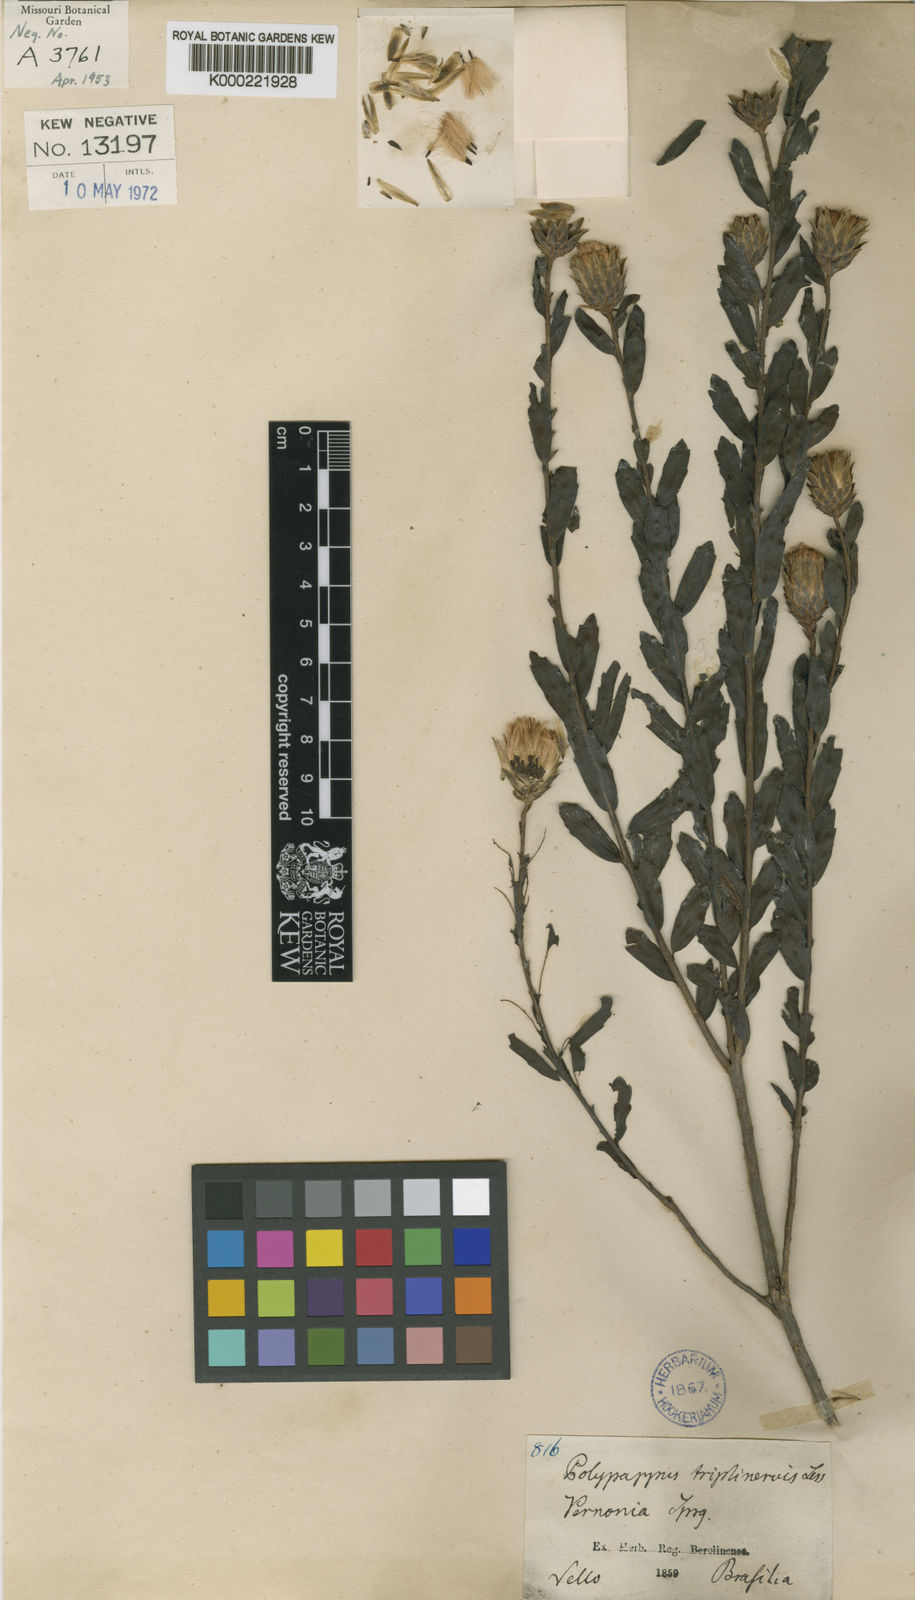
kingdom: Plantae
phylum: Tracheophyta
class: Magnoliopsida
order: Asterales
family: Asteraceae
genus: Baccharis
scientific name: Baccharis trineura
